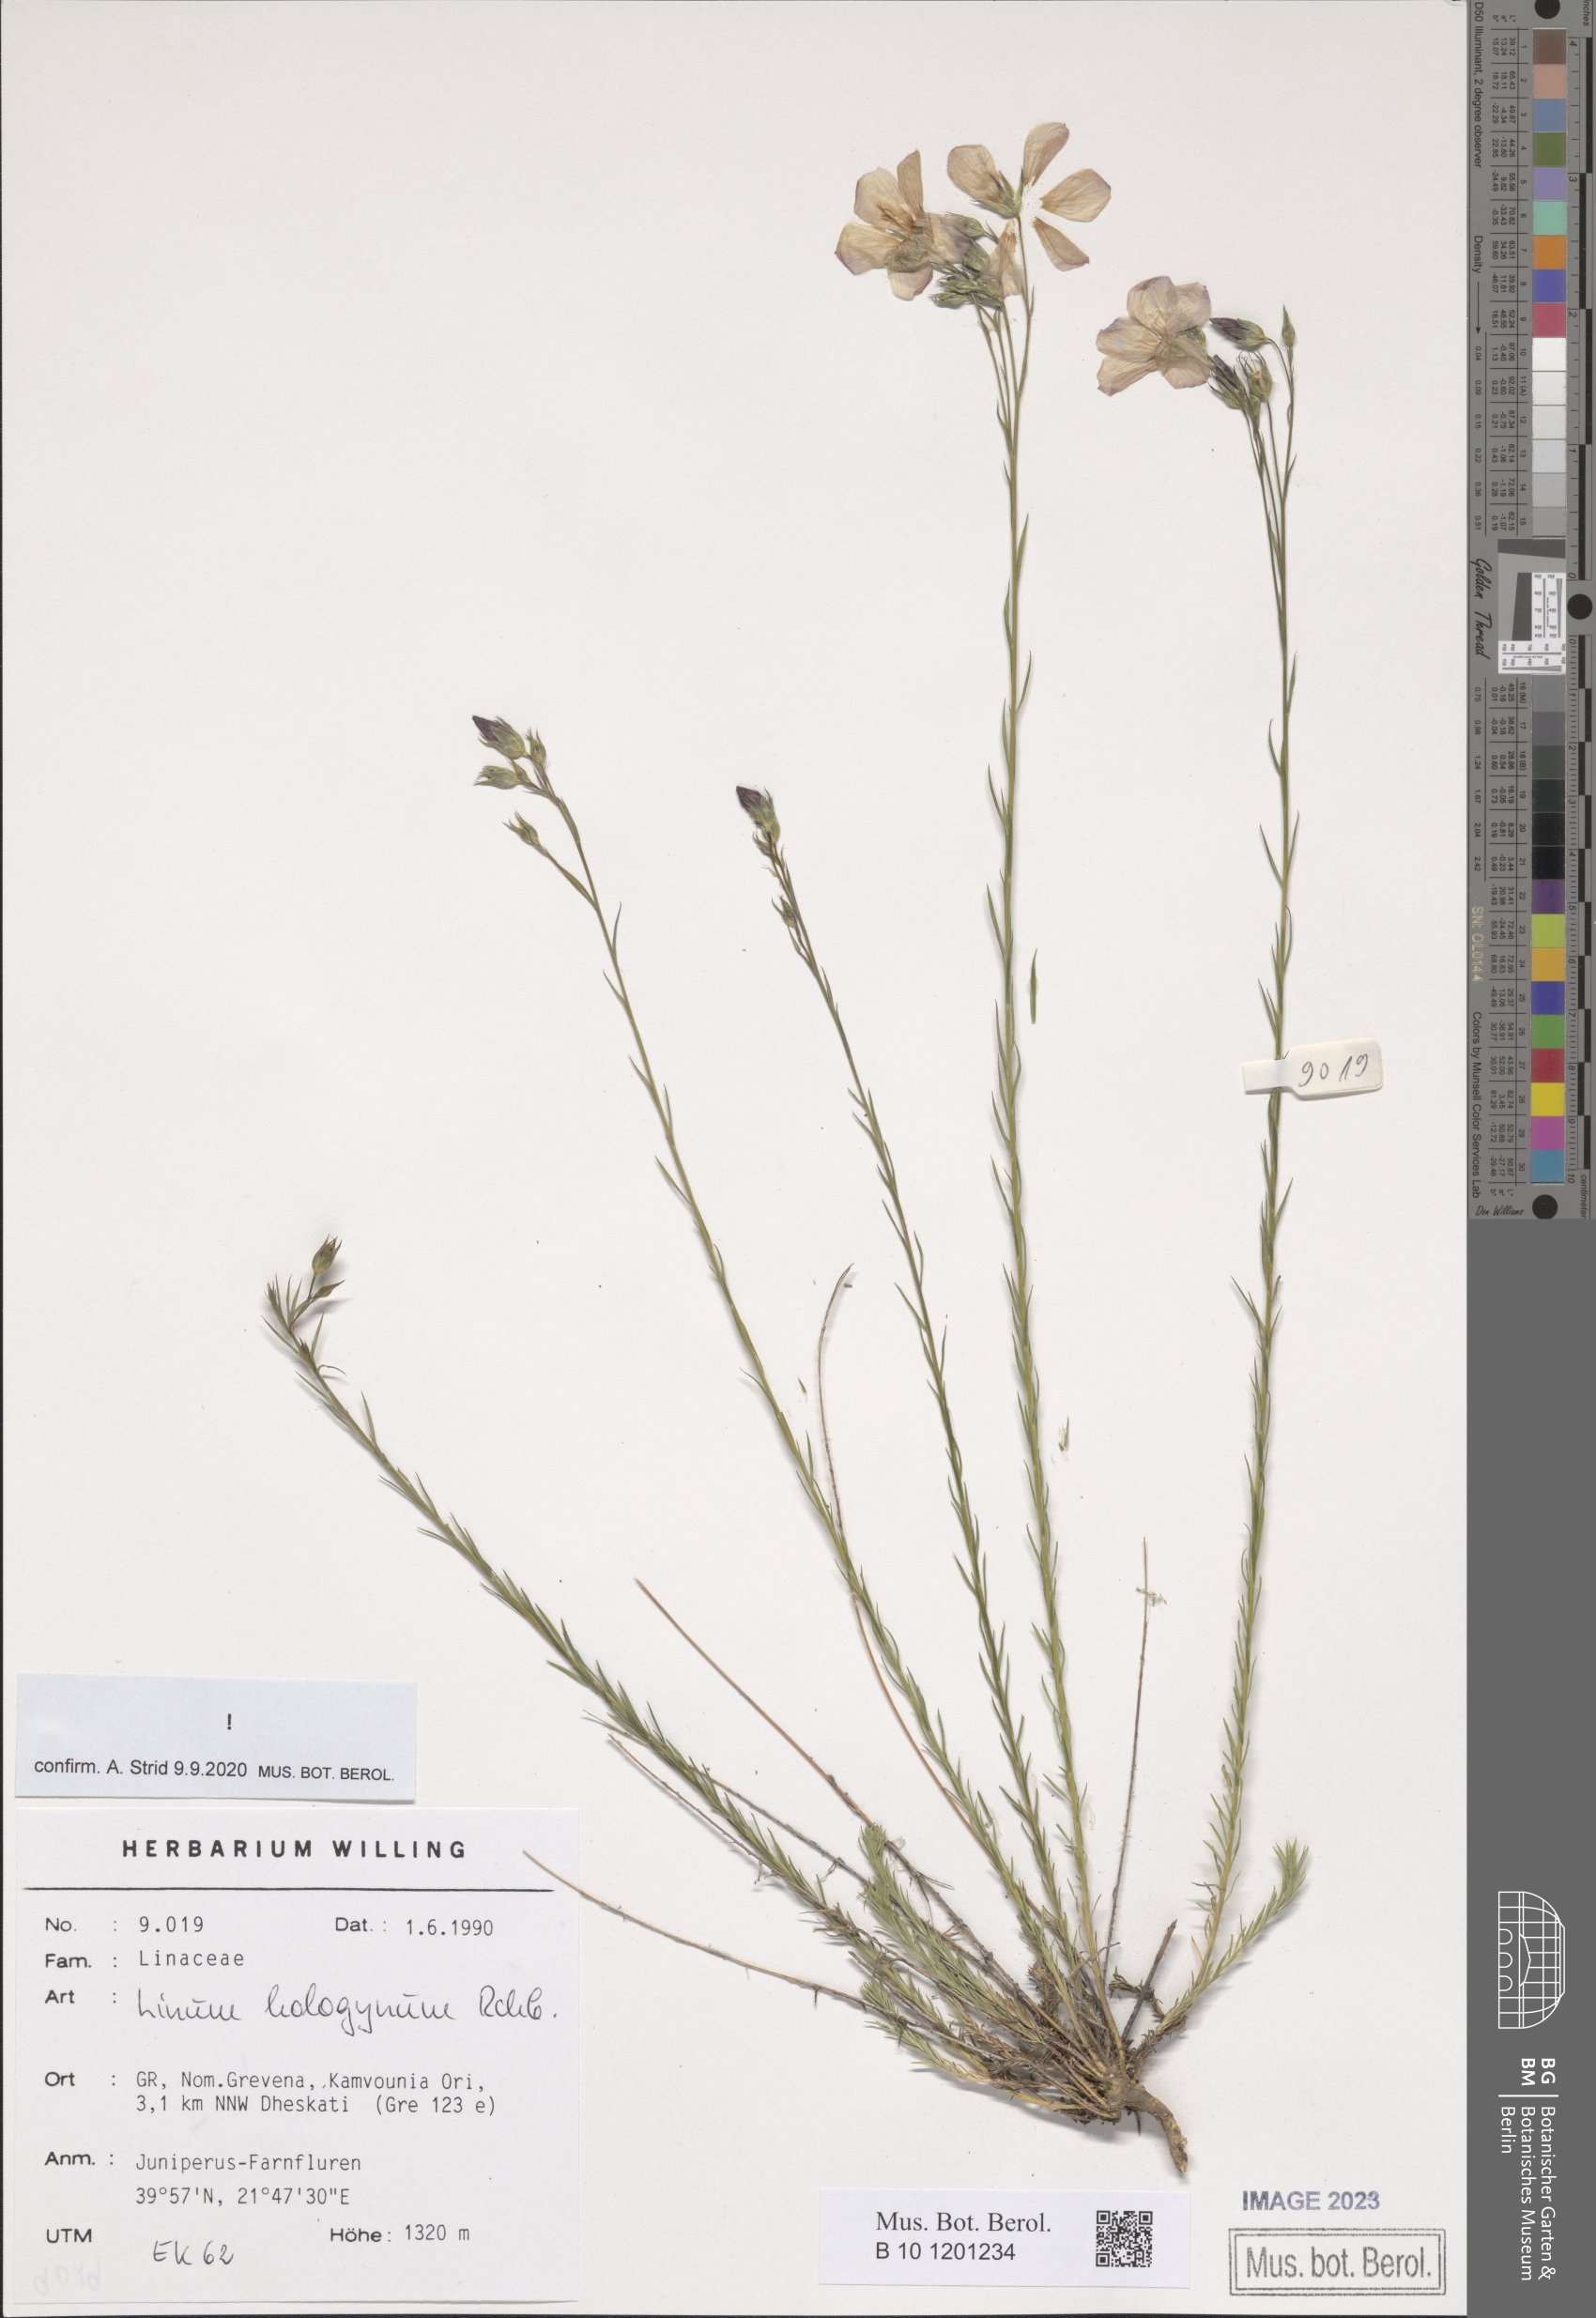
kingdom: Plantae
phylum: Tracheophyta
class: Magnoliopsida
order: Malpighiales
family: Linaceae
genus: Linum
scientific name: Linum hologynum
